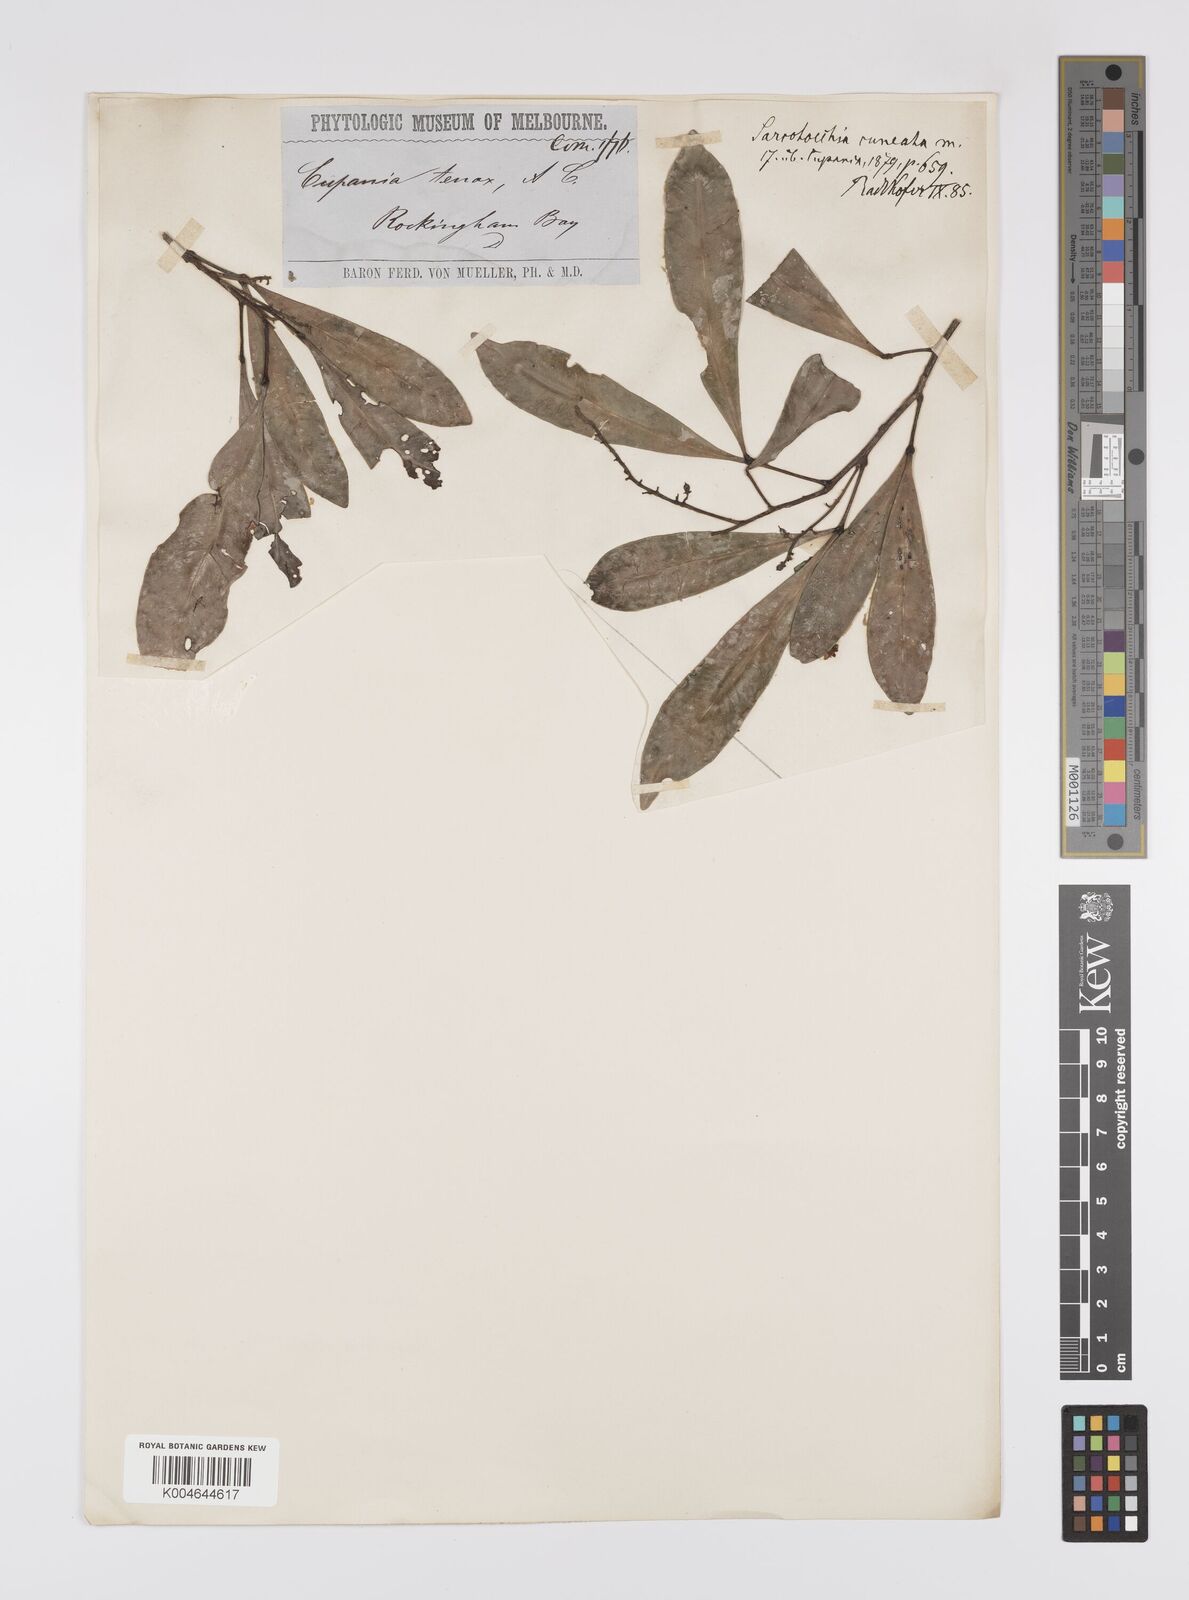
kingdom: Plantae
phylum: Tracheophyta
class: Magnoliopsida
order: Sapindales
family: Sapindaceae
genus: Sarcotoechia
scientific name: Sarcotoechia cuneata
